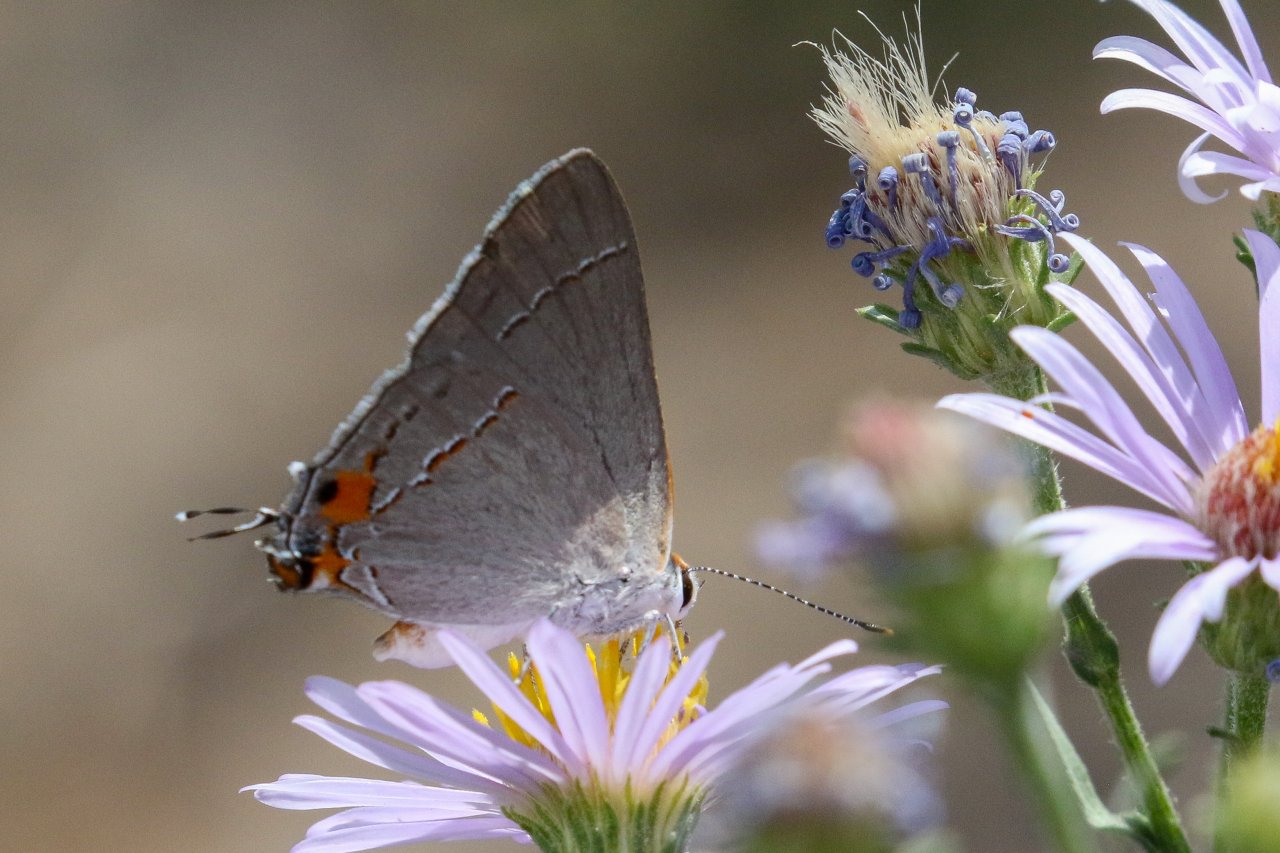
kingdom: Animalia
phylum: Arthropoda
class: Insecta
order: Lepidoptera
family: Lycaenidae
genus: Strymon
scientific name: Strymon melinus
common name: Gray Hairstreak
